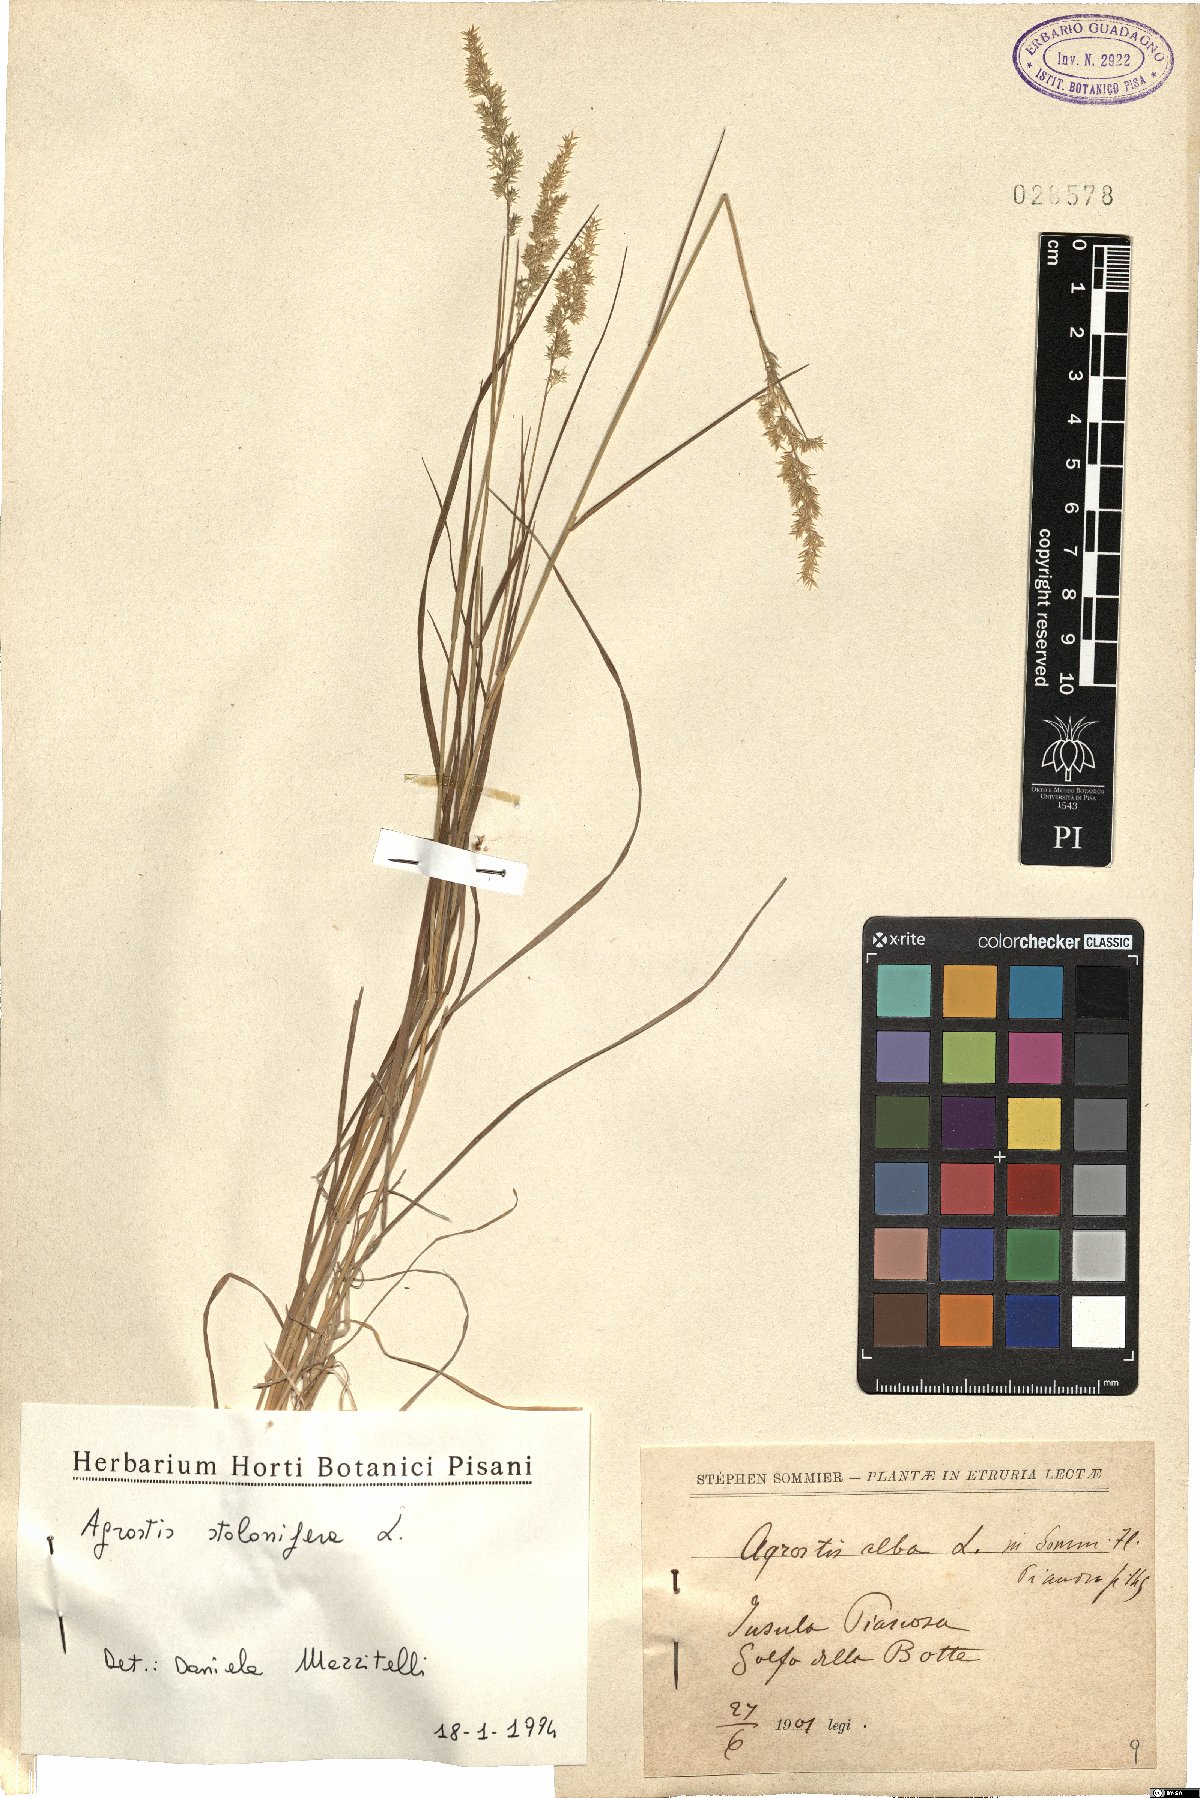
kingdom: Plantae
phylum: Tracheophyta
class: Liliopsida
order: Poales
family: Poaceae
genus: Agrostis
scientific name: Agrostis stolonifera
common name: Creeping bentgrass
